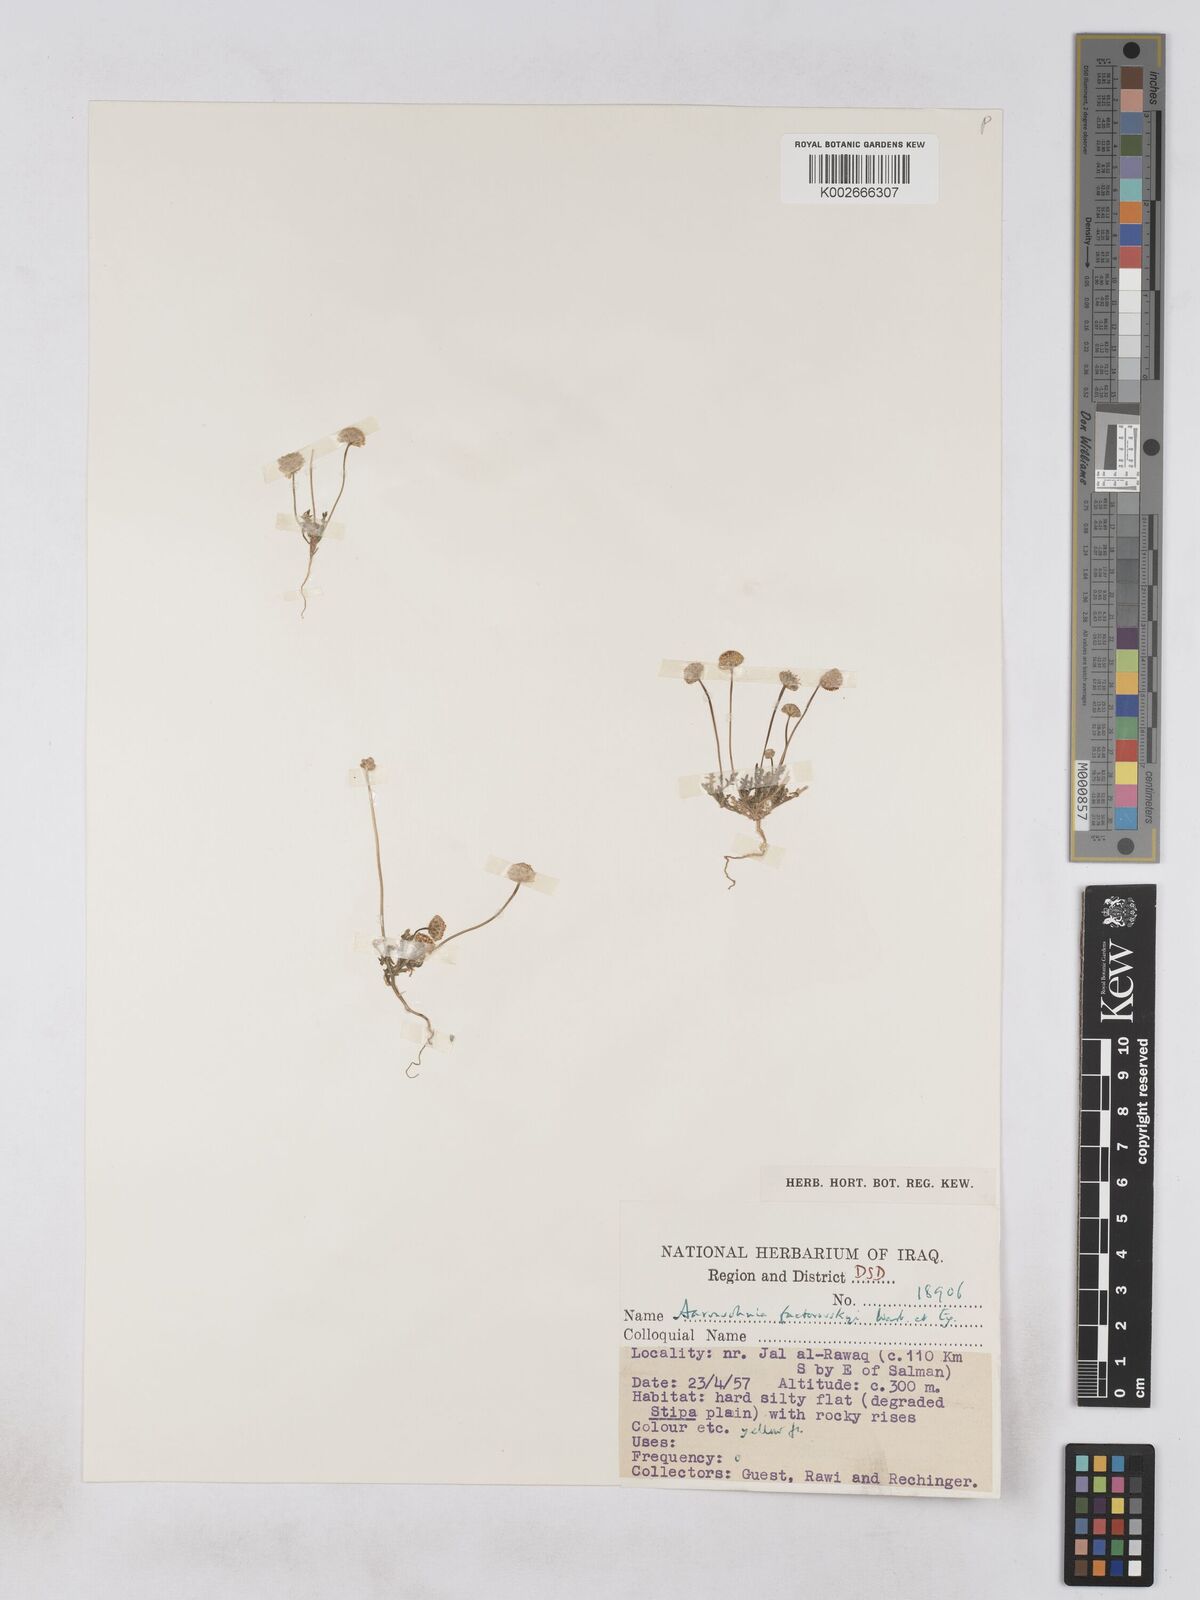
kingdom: Plantae
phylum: Tracheophyta
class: Magnoliopsida
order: Asterales
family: Asteraceae
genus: Otoglyphis
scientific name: Otoglyphis factorovskyi
